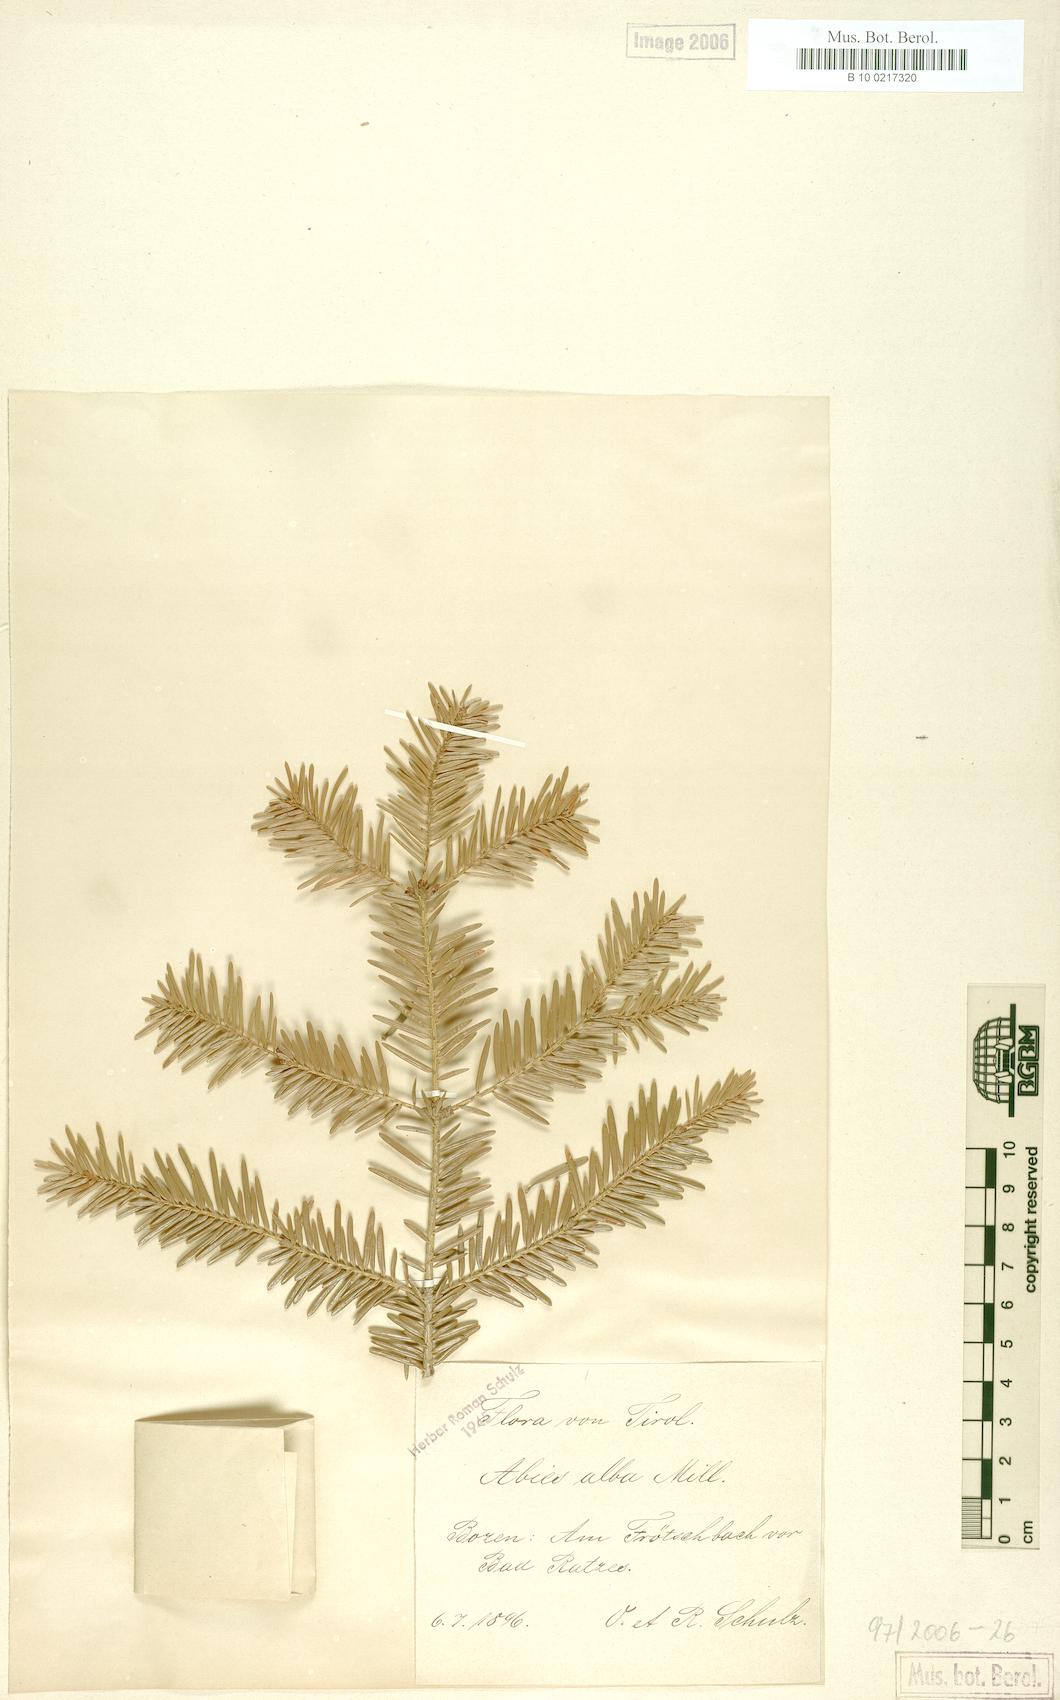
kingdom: Plantae
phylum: Tracheophyta
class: Pinopsida
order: Pinales
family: Pinaceae
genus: Abies
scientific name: Abies alba
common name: Silver fir
